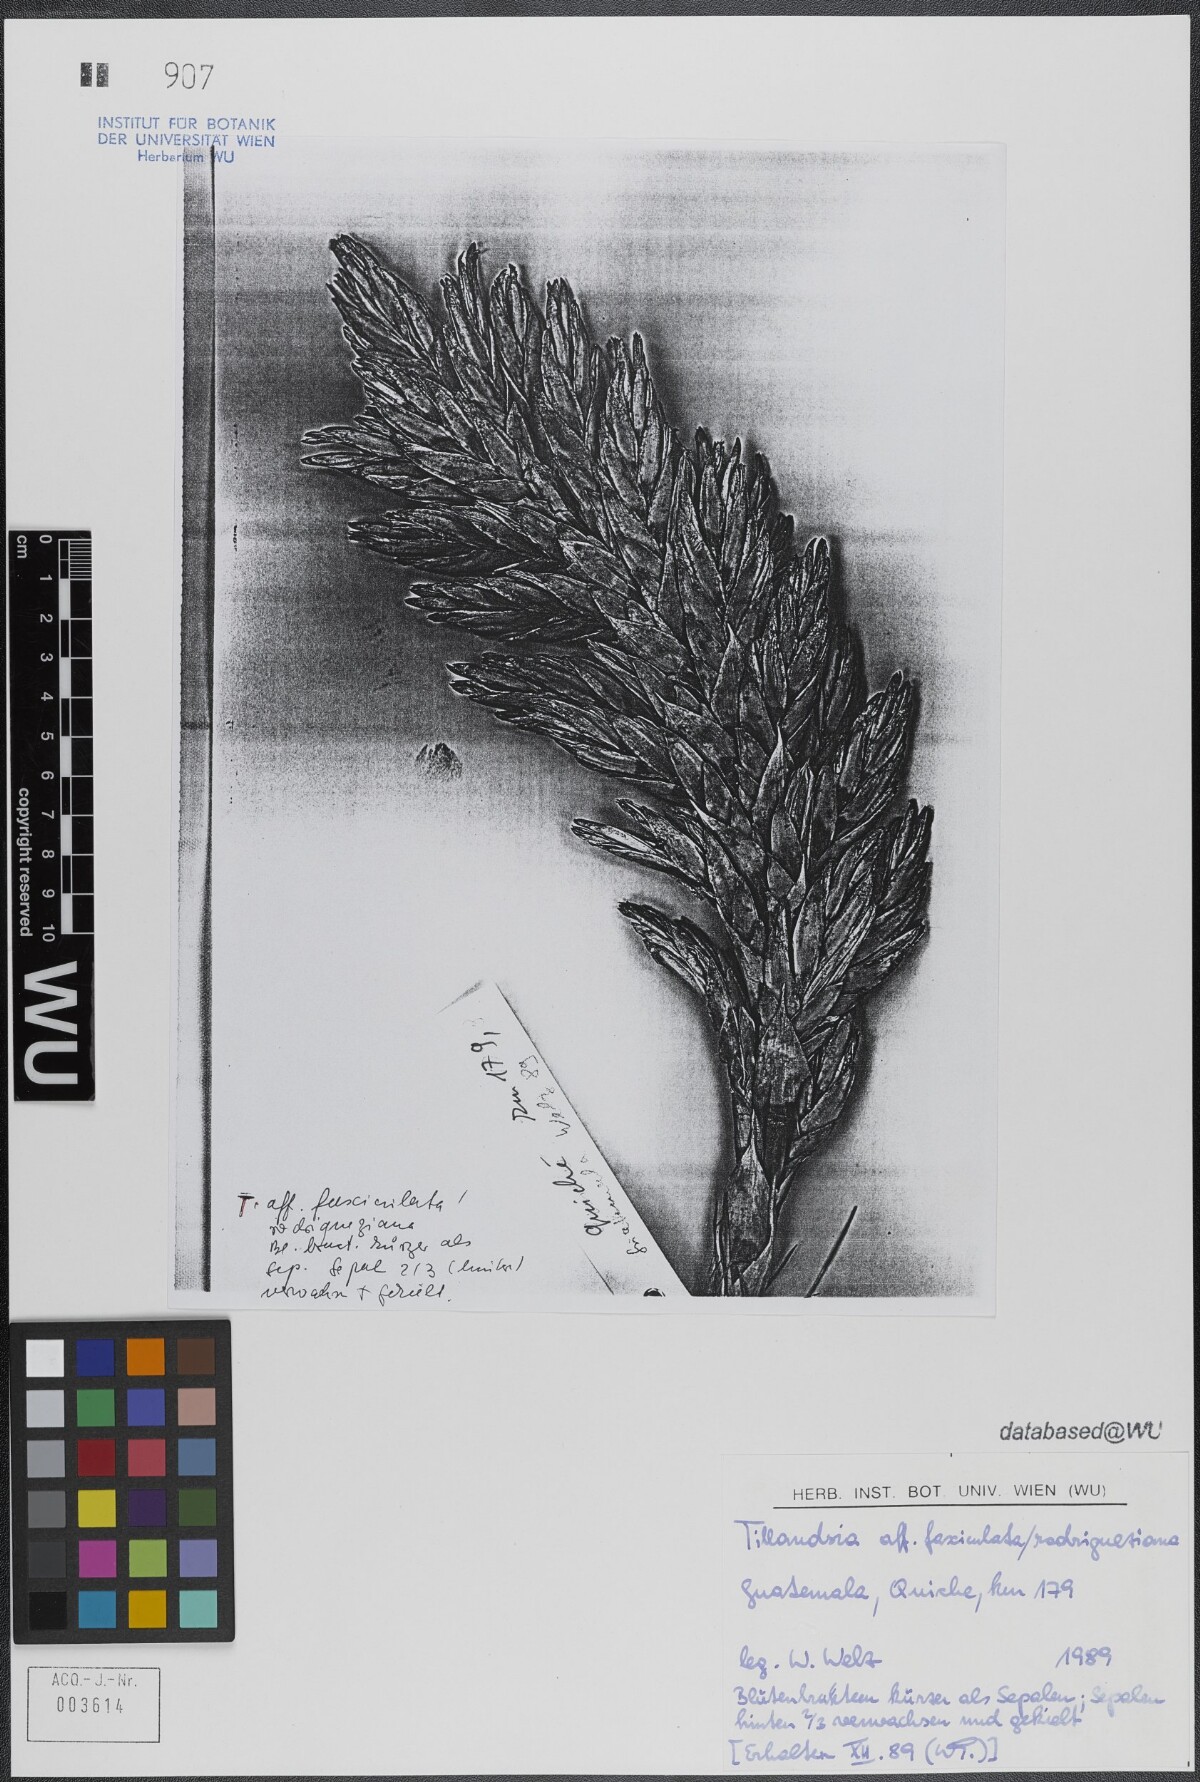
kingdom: Plantae
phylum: Tracheophyta
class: Liliopsida
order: Poales
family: Bromeliaceae
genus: Tillandsia
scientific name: Tillandsia fasciculata
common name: Giant airplant
